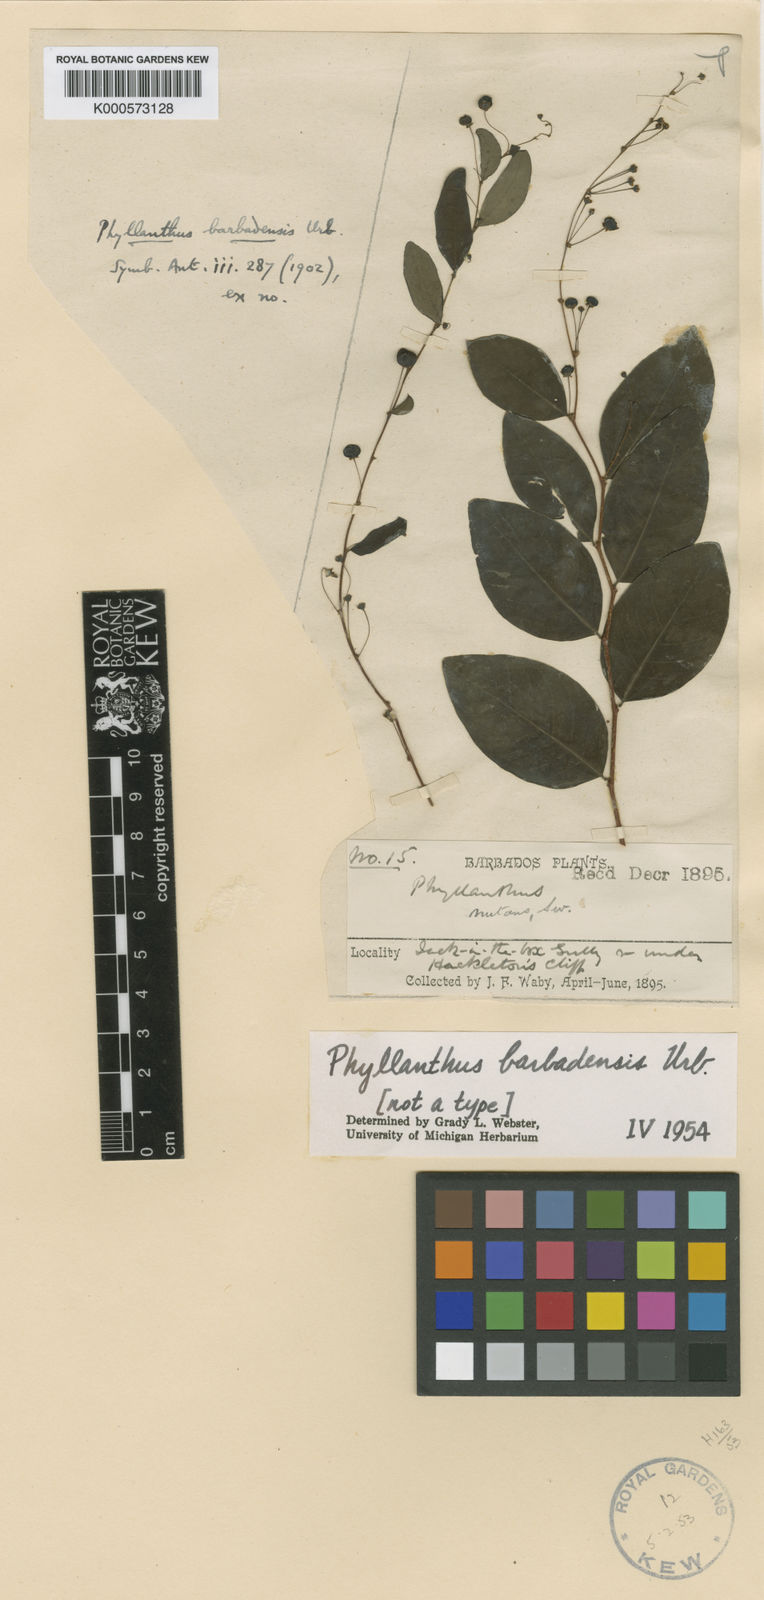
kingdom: Plantae
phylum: Tracheophyta
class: Magnoliopsida
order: Malpighiales
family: Phyllanthaceae
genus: Phyllanthus
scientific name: Phyllanthus anderssonii
